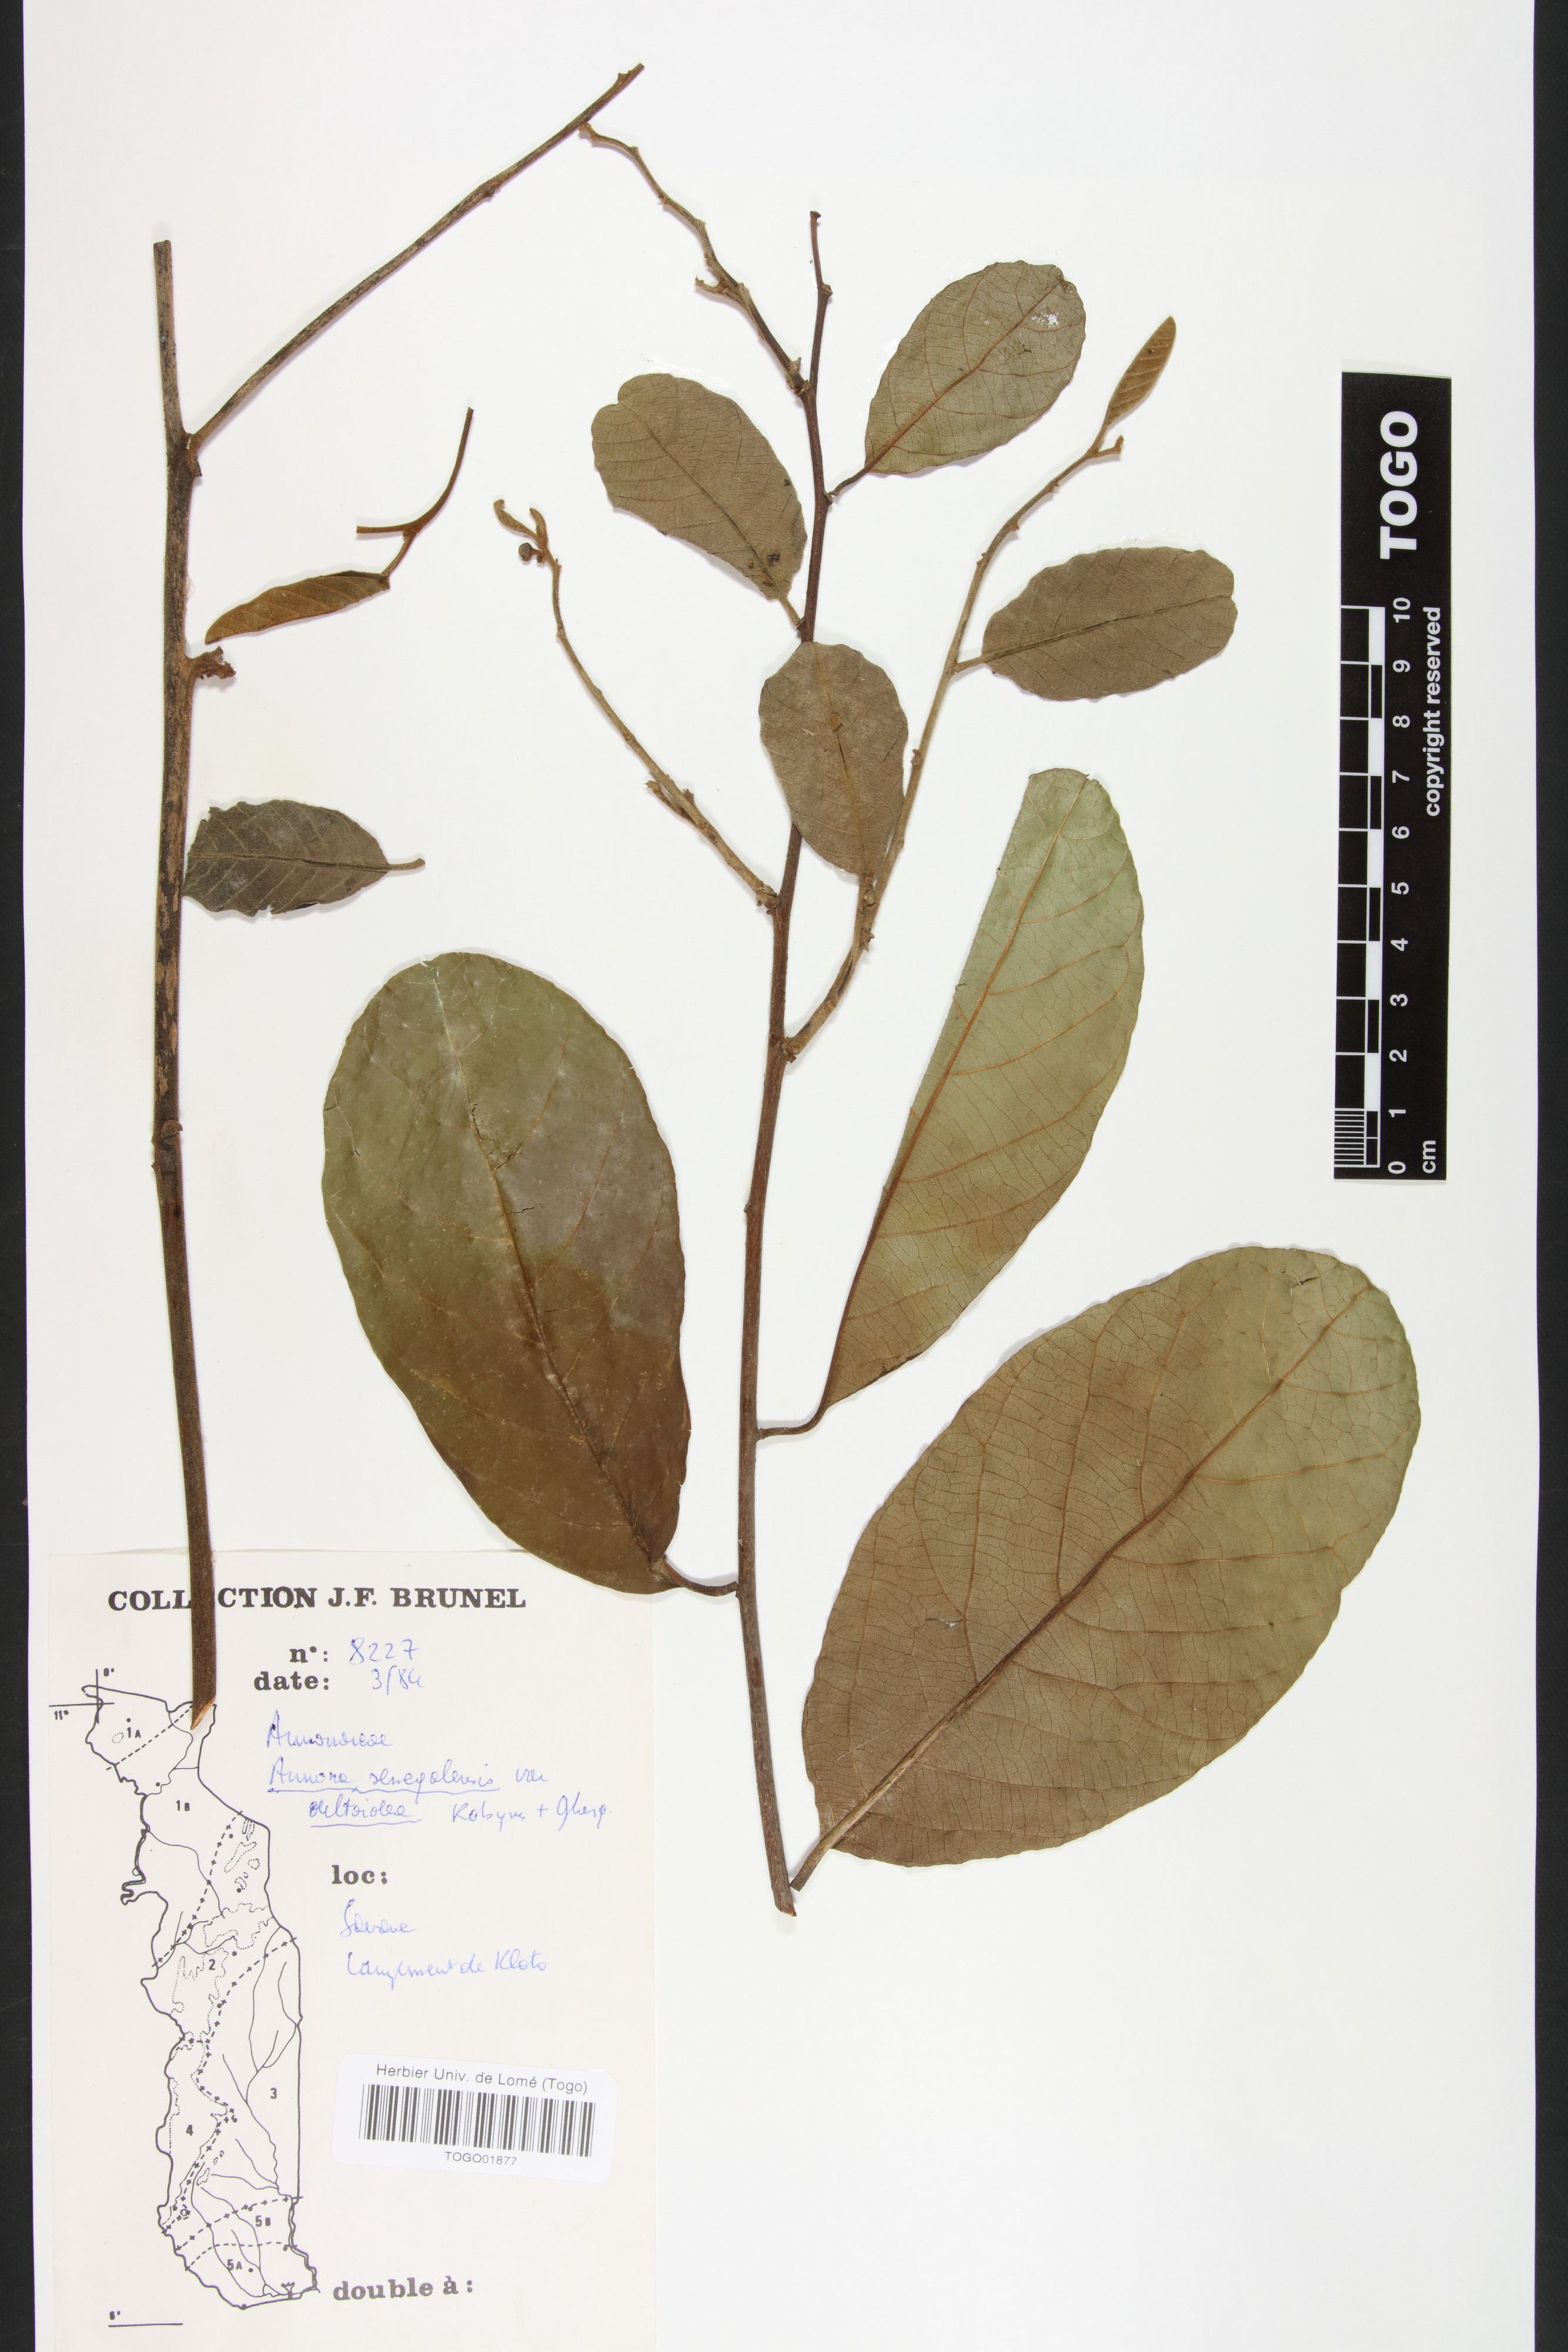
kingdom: Plantae
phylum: Tracheophyta
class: Magnoliopsida
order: Magnoliales
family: Annonaceae
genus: Annona
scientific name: Annona senegalensis
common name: Wild custard-apple
